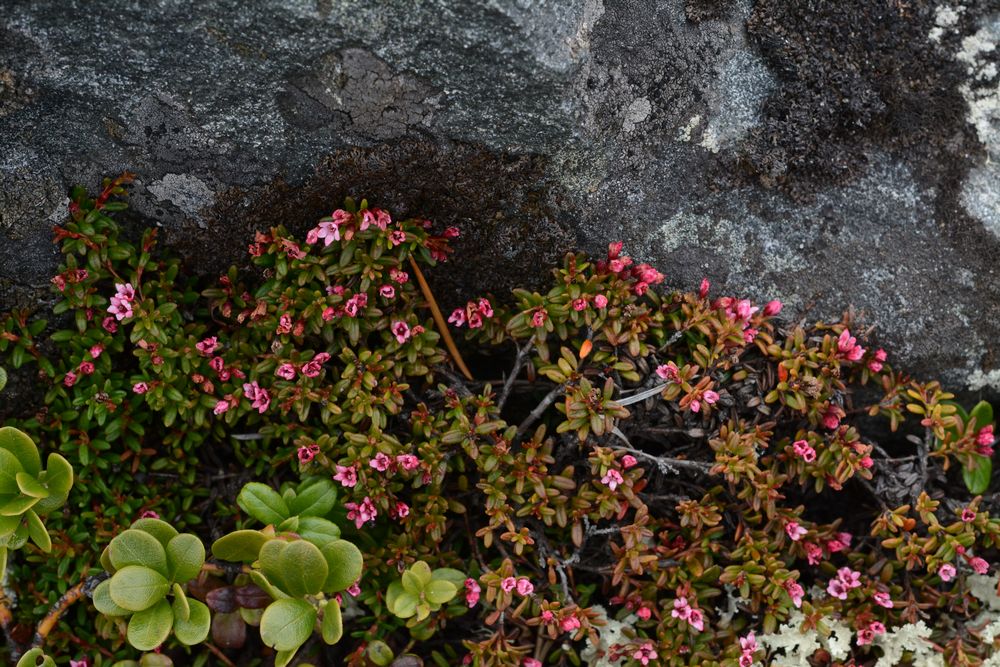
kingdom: Plantae
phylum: Tracheophyta
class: Magnoliopsida
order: Ericales
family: Ericaceae
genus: Kalmia
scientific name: Kalmia procumbens
